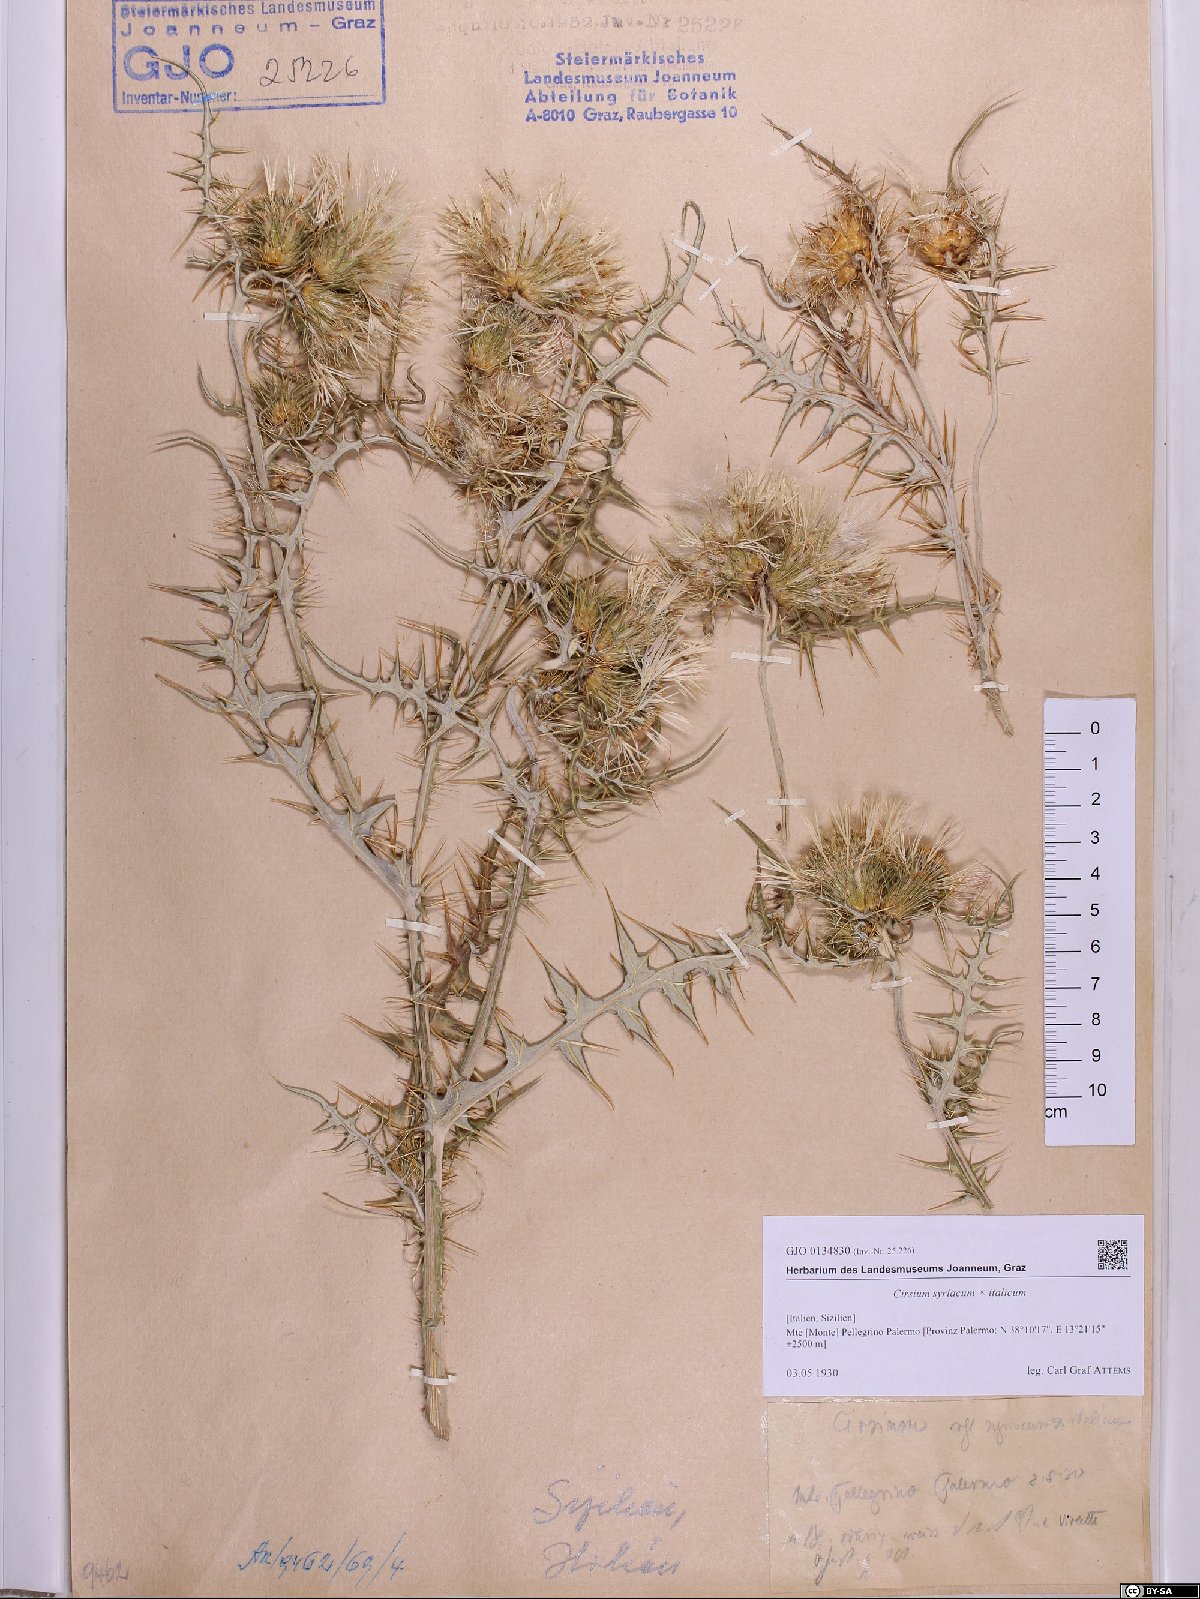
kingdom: Plantae
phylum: Tracheophyta
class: Magnoliopsida
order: Asterales
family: Asteraceae
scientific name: Asteraceae
